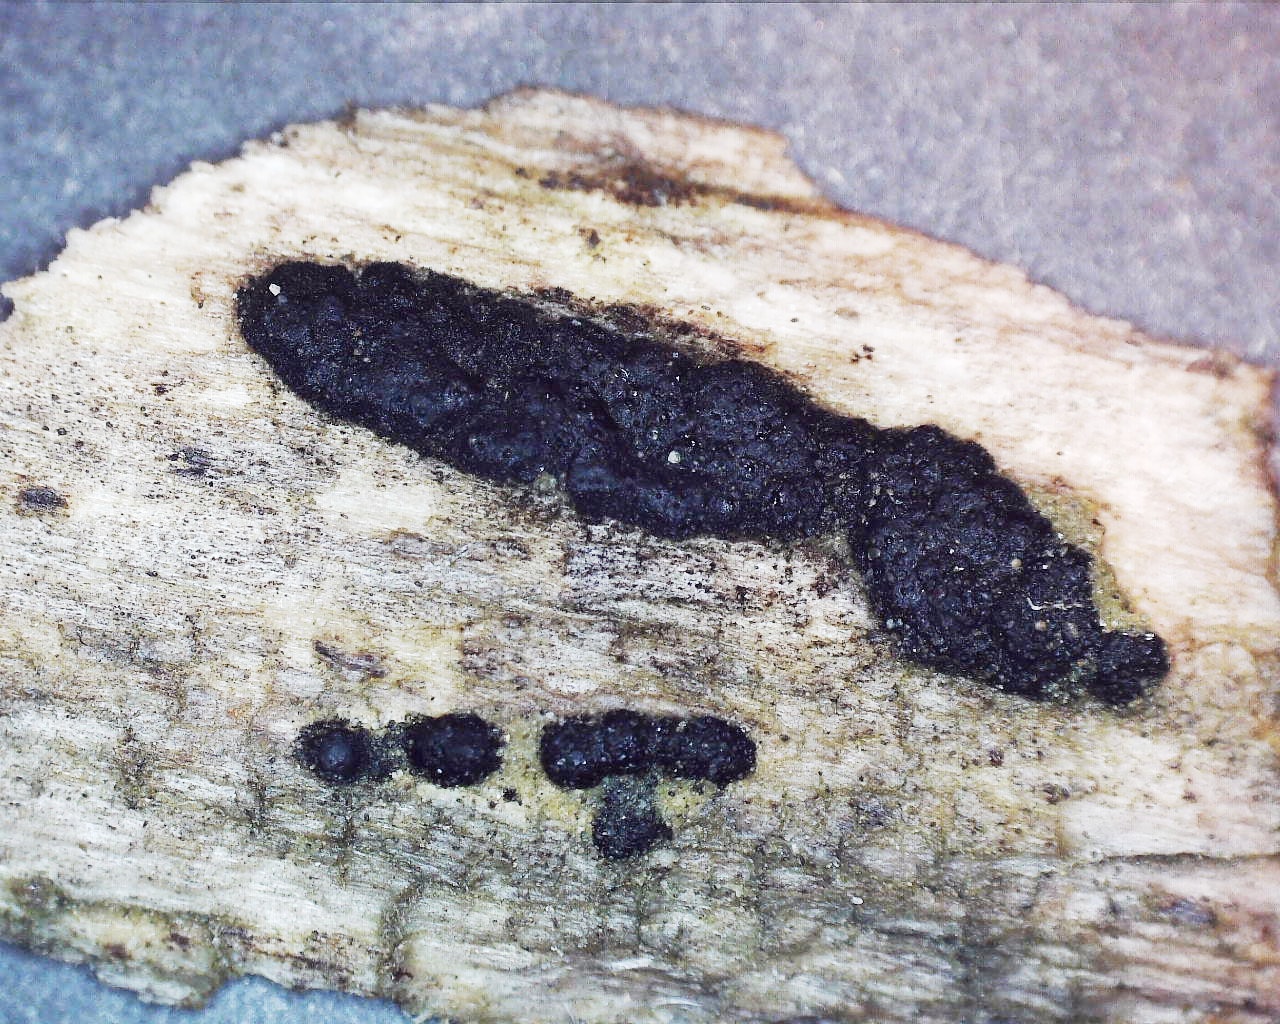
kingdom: Fungi
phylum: Ascomycota
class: Sordariomycetes
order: Xylariales
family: Xylariaceae
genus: Nemania
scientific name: Nemania
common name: kuldyne
